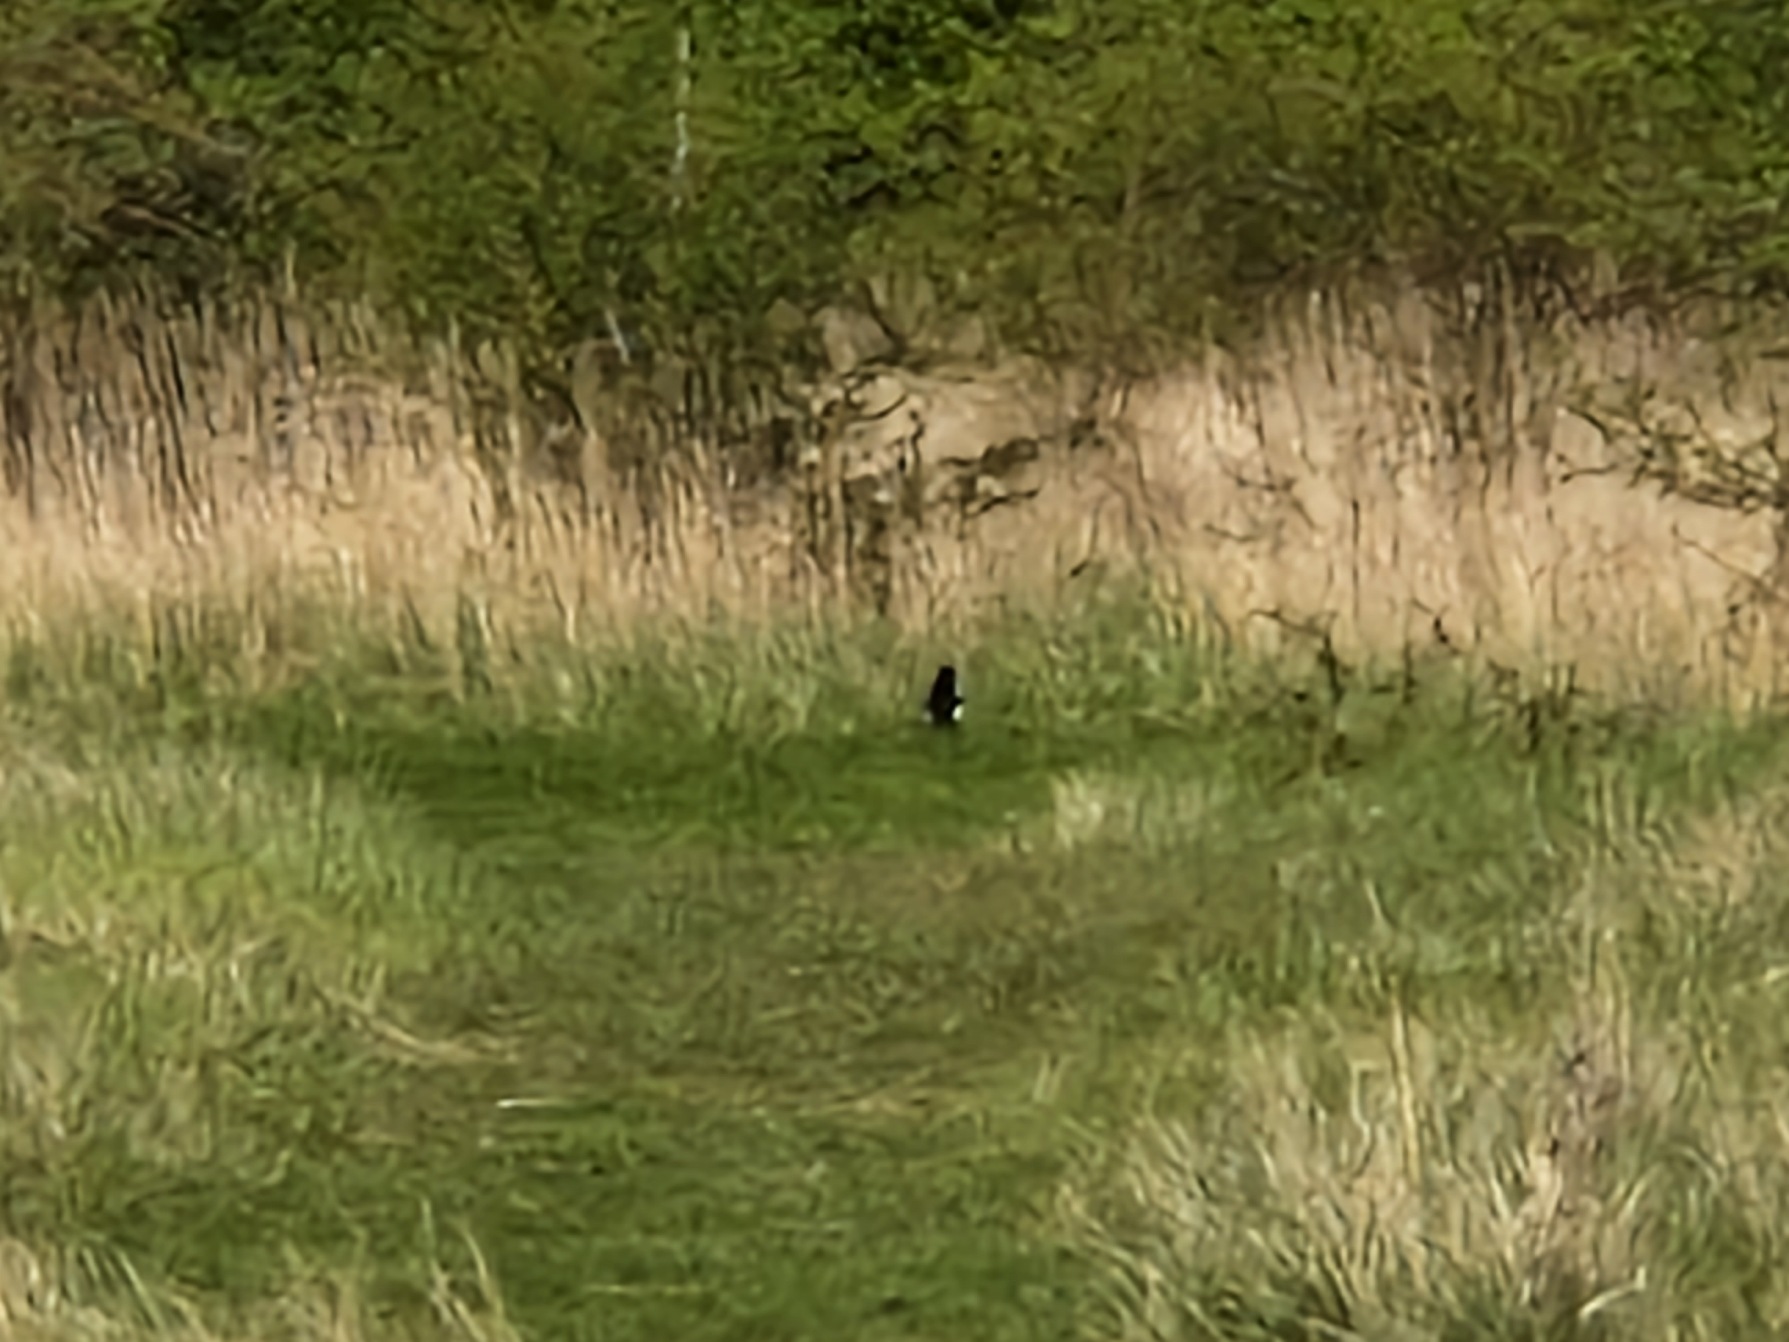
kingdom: Animalia
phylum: Chordata
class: Aves
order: Passeriformes
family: Corvidae
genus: Pica
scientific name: Pica pica
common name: Husskade
